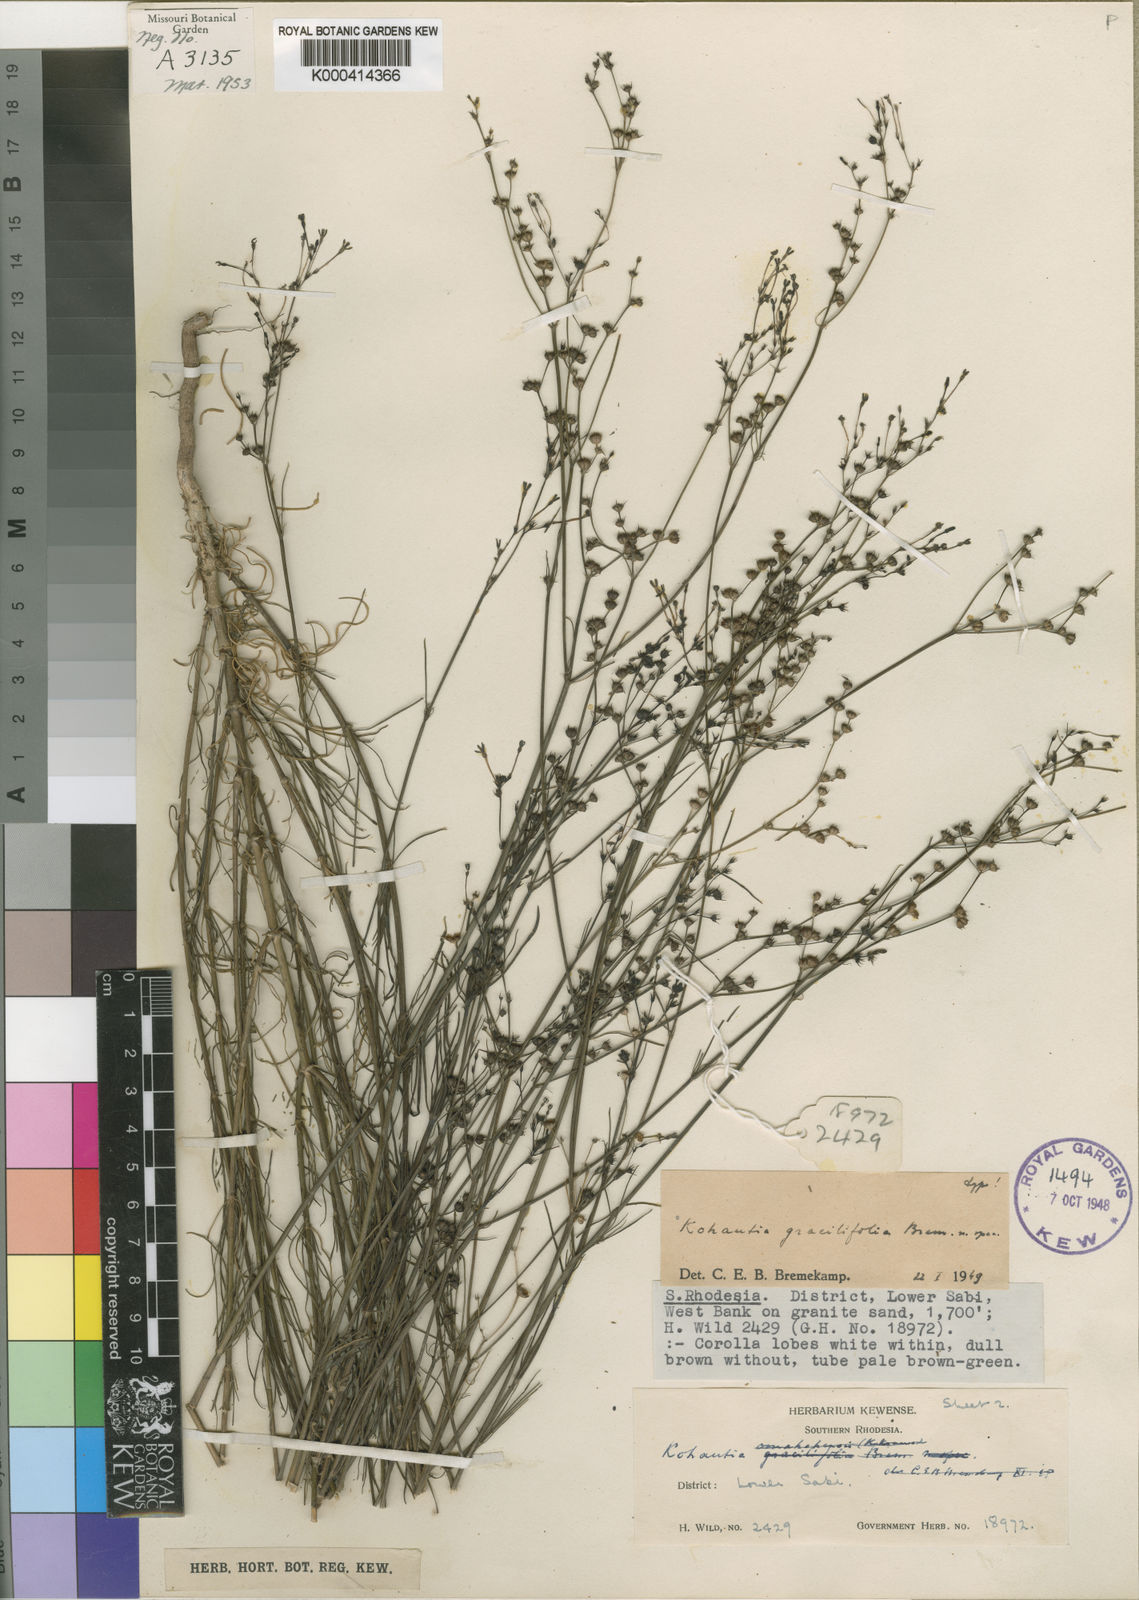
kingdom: Plantae
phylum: Tracheophyta
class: Magnoliopsida
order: Gentianales
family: Rubiaceae
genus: Kohautia
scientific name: Kohautia cynanchica
